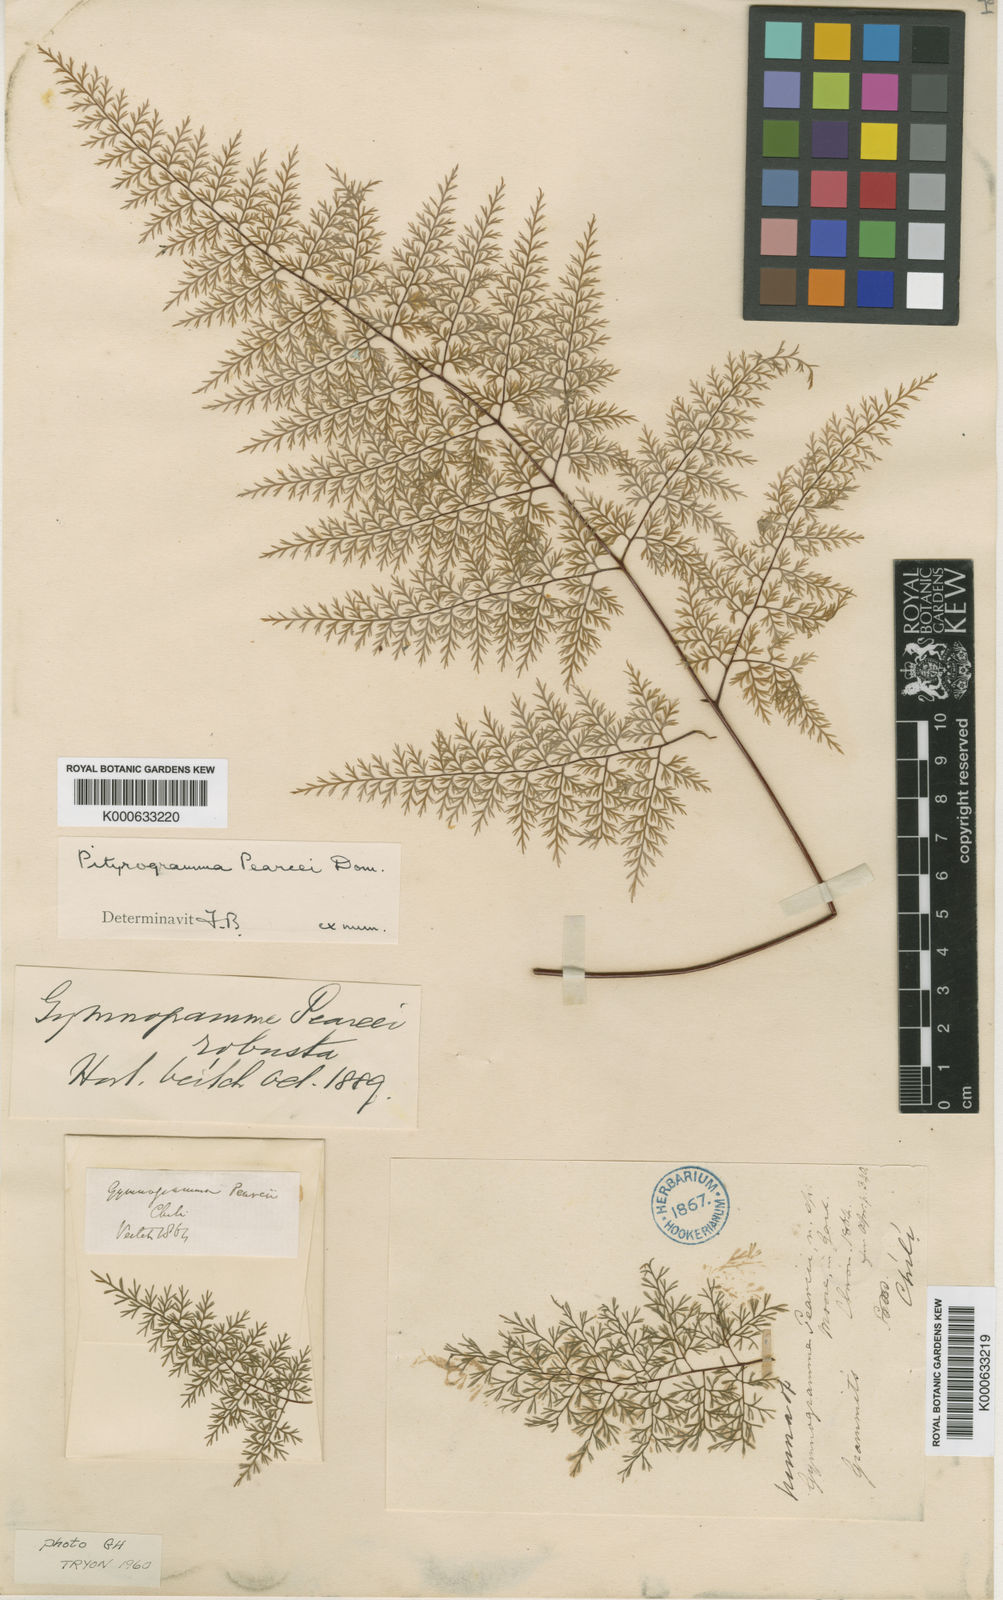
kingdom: Plantae
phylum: Tracheophyta
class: Polypodiopsida
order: Polypodiales
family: Pteridaceae
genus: Pityrogramma
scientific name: Pityrogramma pearcei
